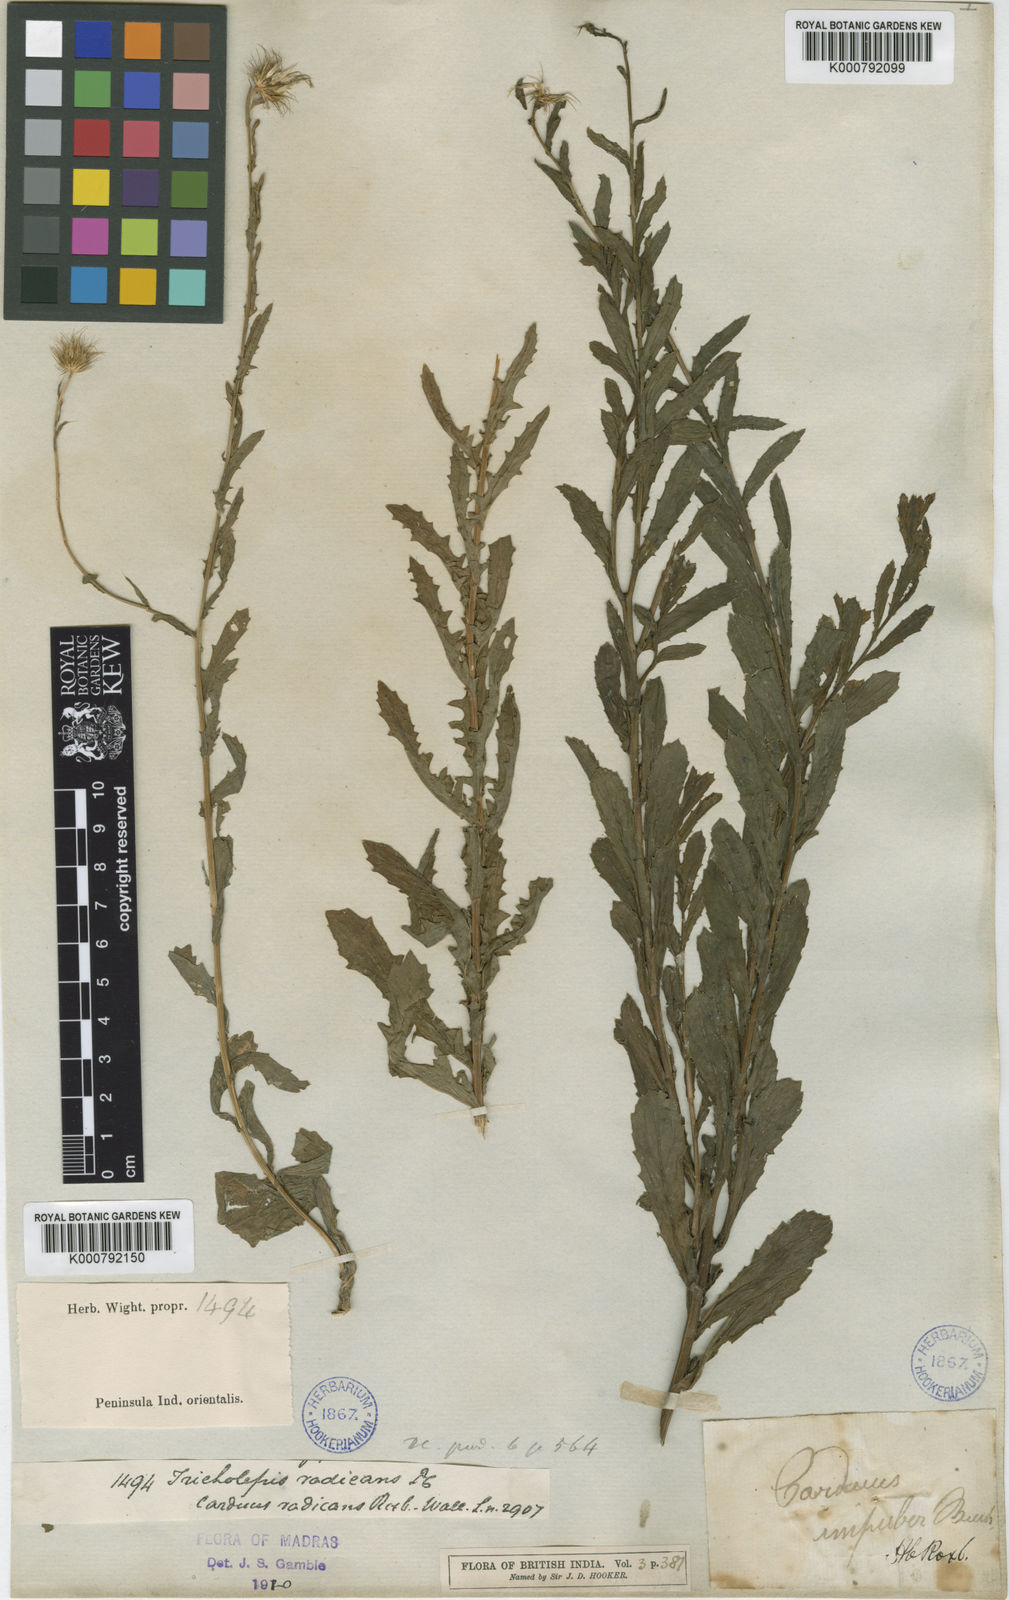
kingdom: Plantae
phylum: Tracheophyta
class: Magnoliopsida
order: Asterales
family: Asteraceae
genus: Tricholepis
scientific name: Tricholepis radicans
